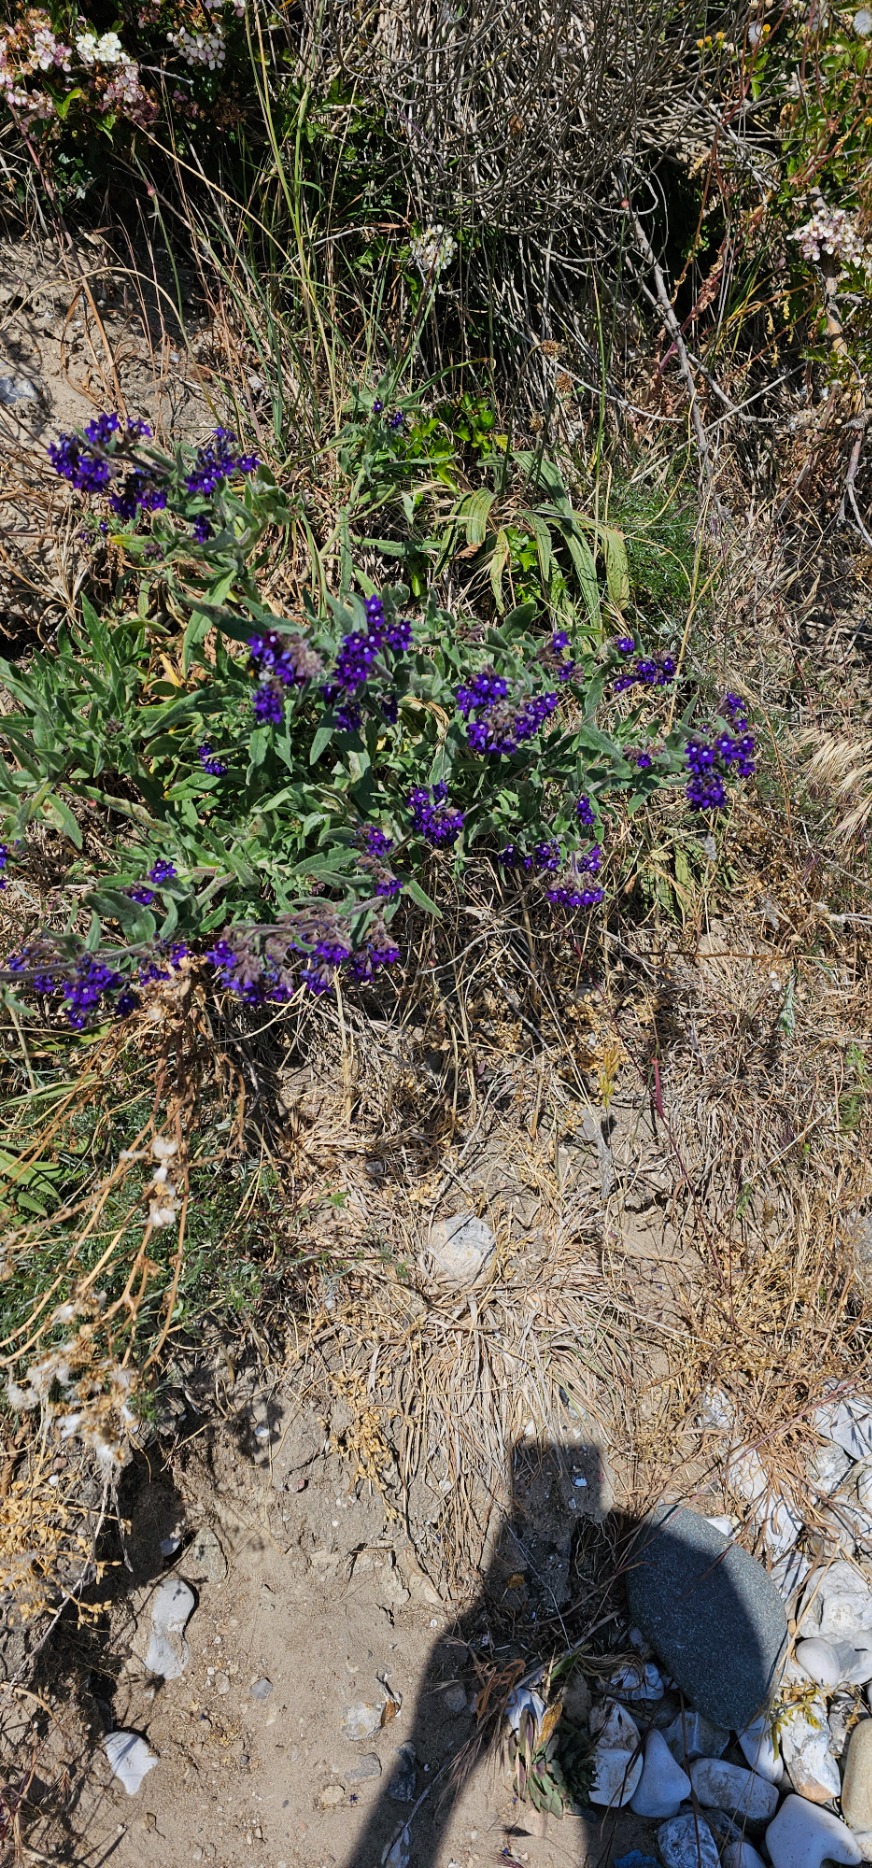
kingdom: Plantae
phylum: Tracheophyta
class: Magnoliopsida
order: Boraginales
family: Boraginaceae
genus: Anchusa
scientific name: Anchusa officinalis
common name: Læge-oksetunge
